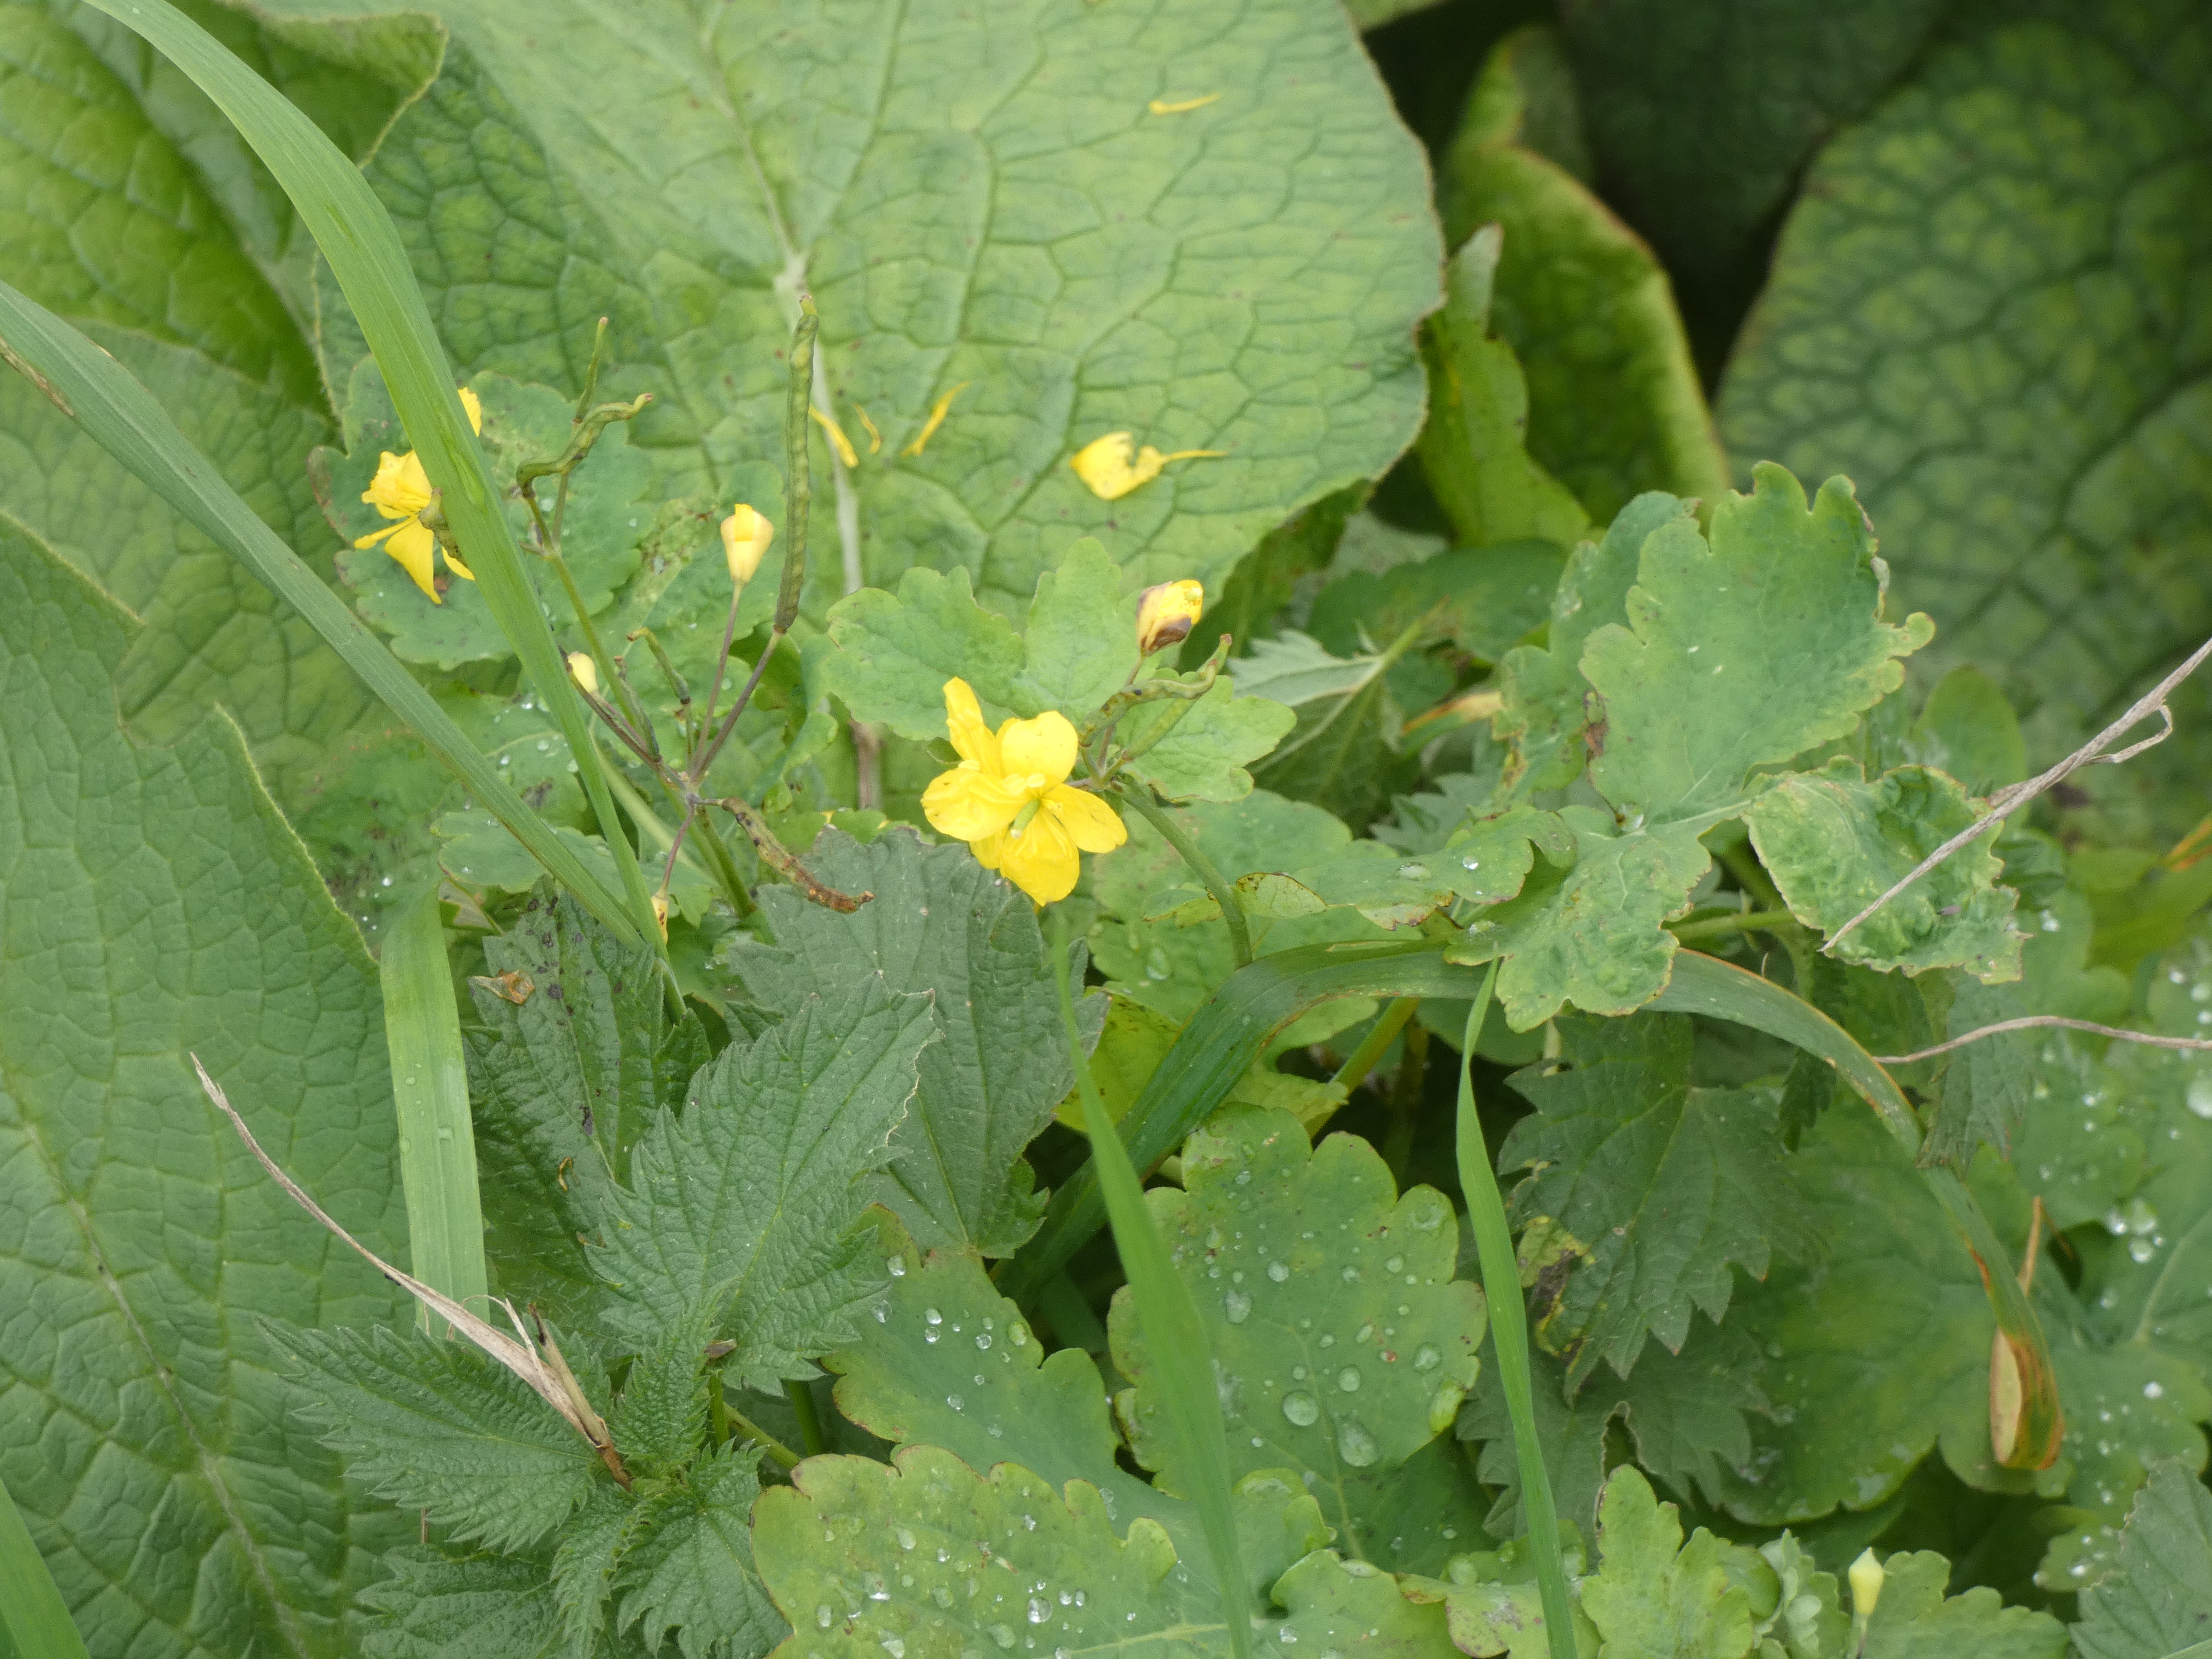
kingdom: Plantae
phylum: Tracheophyta
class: Magnoliopsida
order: Ranunculales
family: Papaveraceae
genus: Chelidonium
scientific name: Chelidonium majus
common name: Svaleurt
